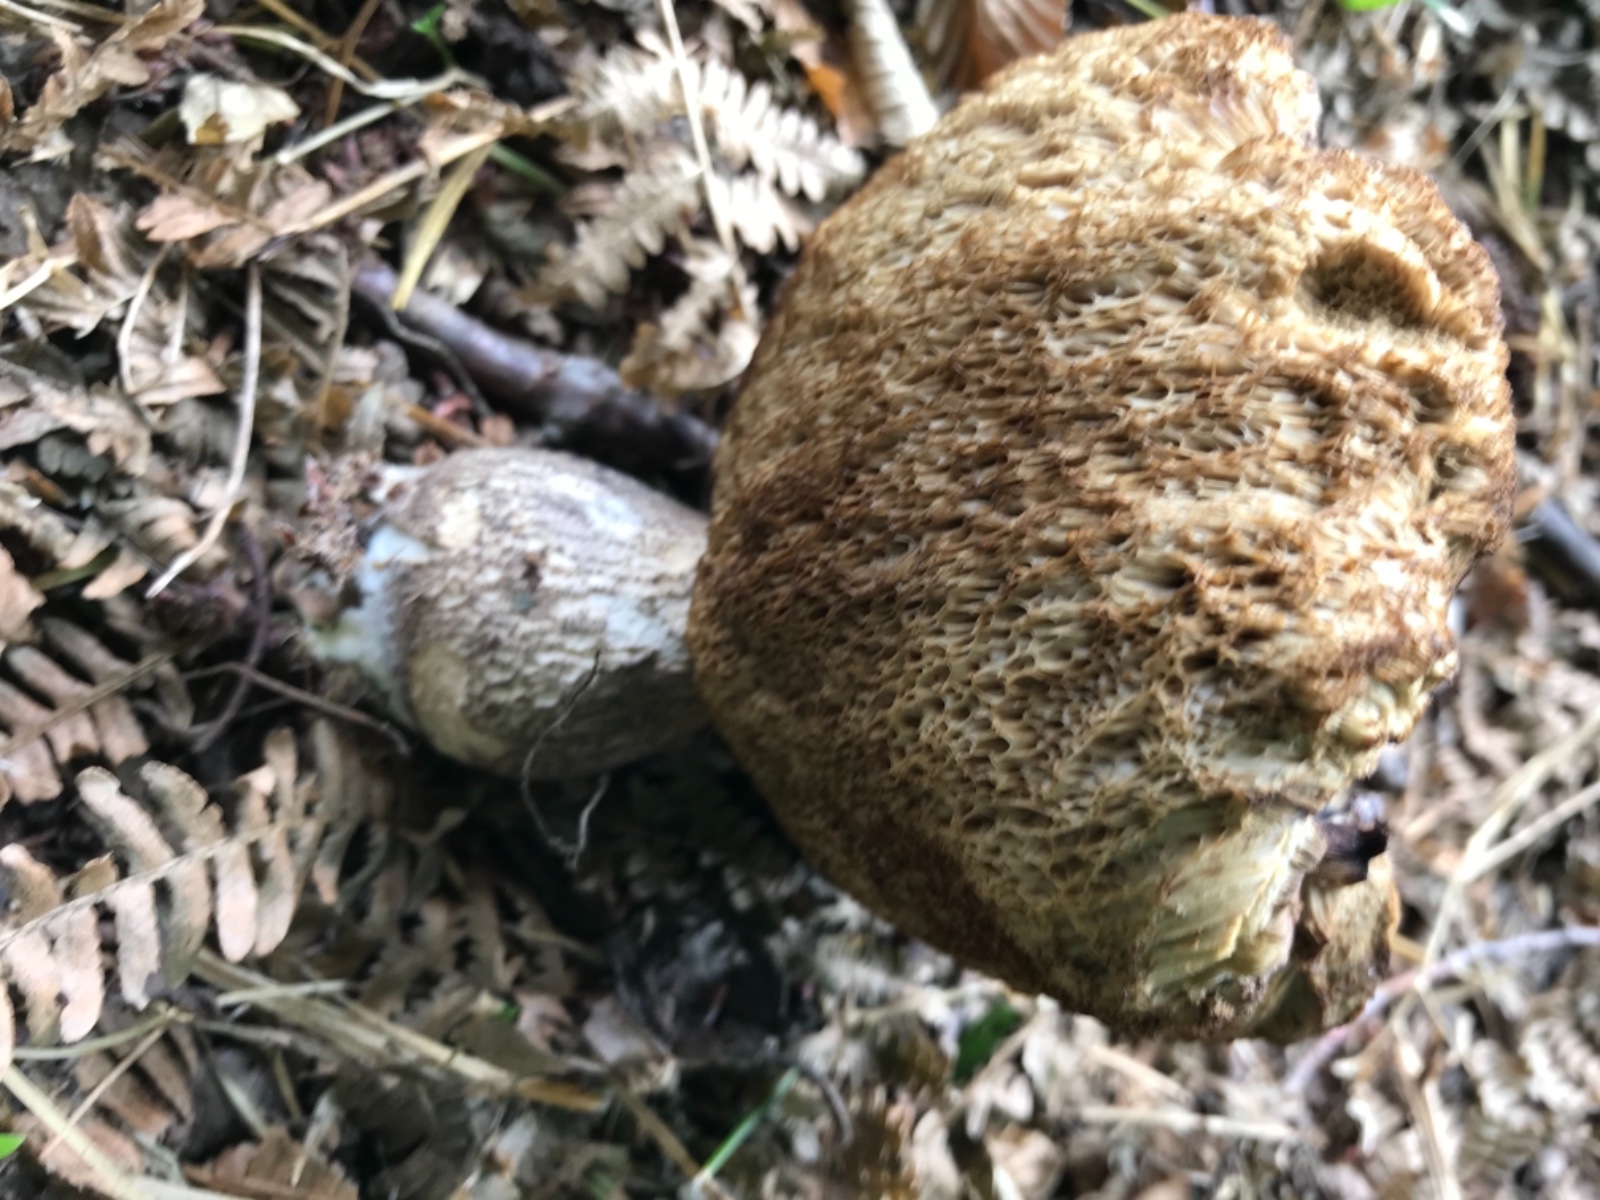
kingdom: Fungi
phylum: Basidiomycota
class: Agaricomycetes
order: Boletales
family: Boletaceae
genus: Leccinellum
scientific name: Leccinellum pseudoscabrum
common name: avnbøg-skælrørhat
